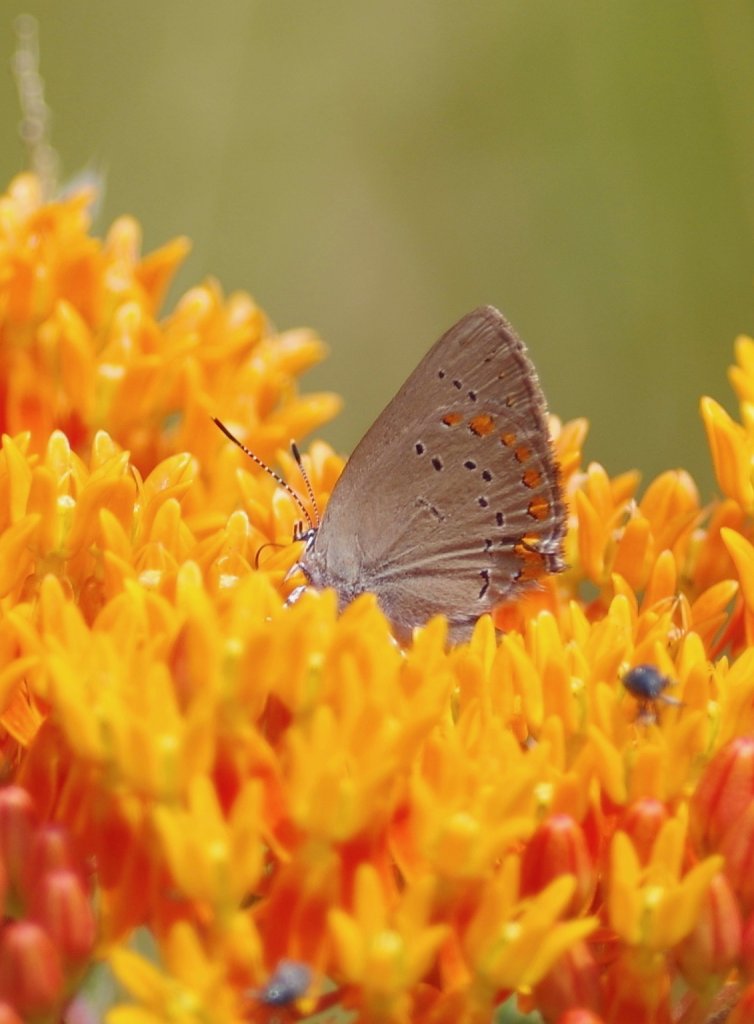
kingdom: Animalia
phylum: Arthropoda
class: Insecta
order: Lepidoptera
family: Lycaenidae
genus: Harkenclenus
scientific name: Harkenclenus titus
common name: Coral Hairstreak
